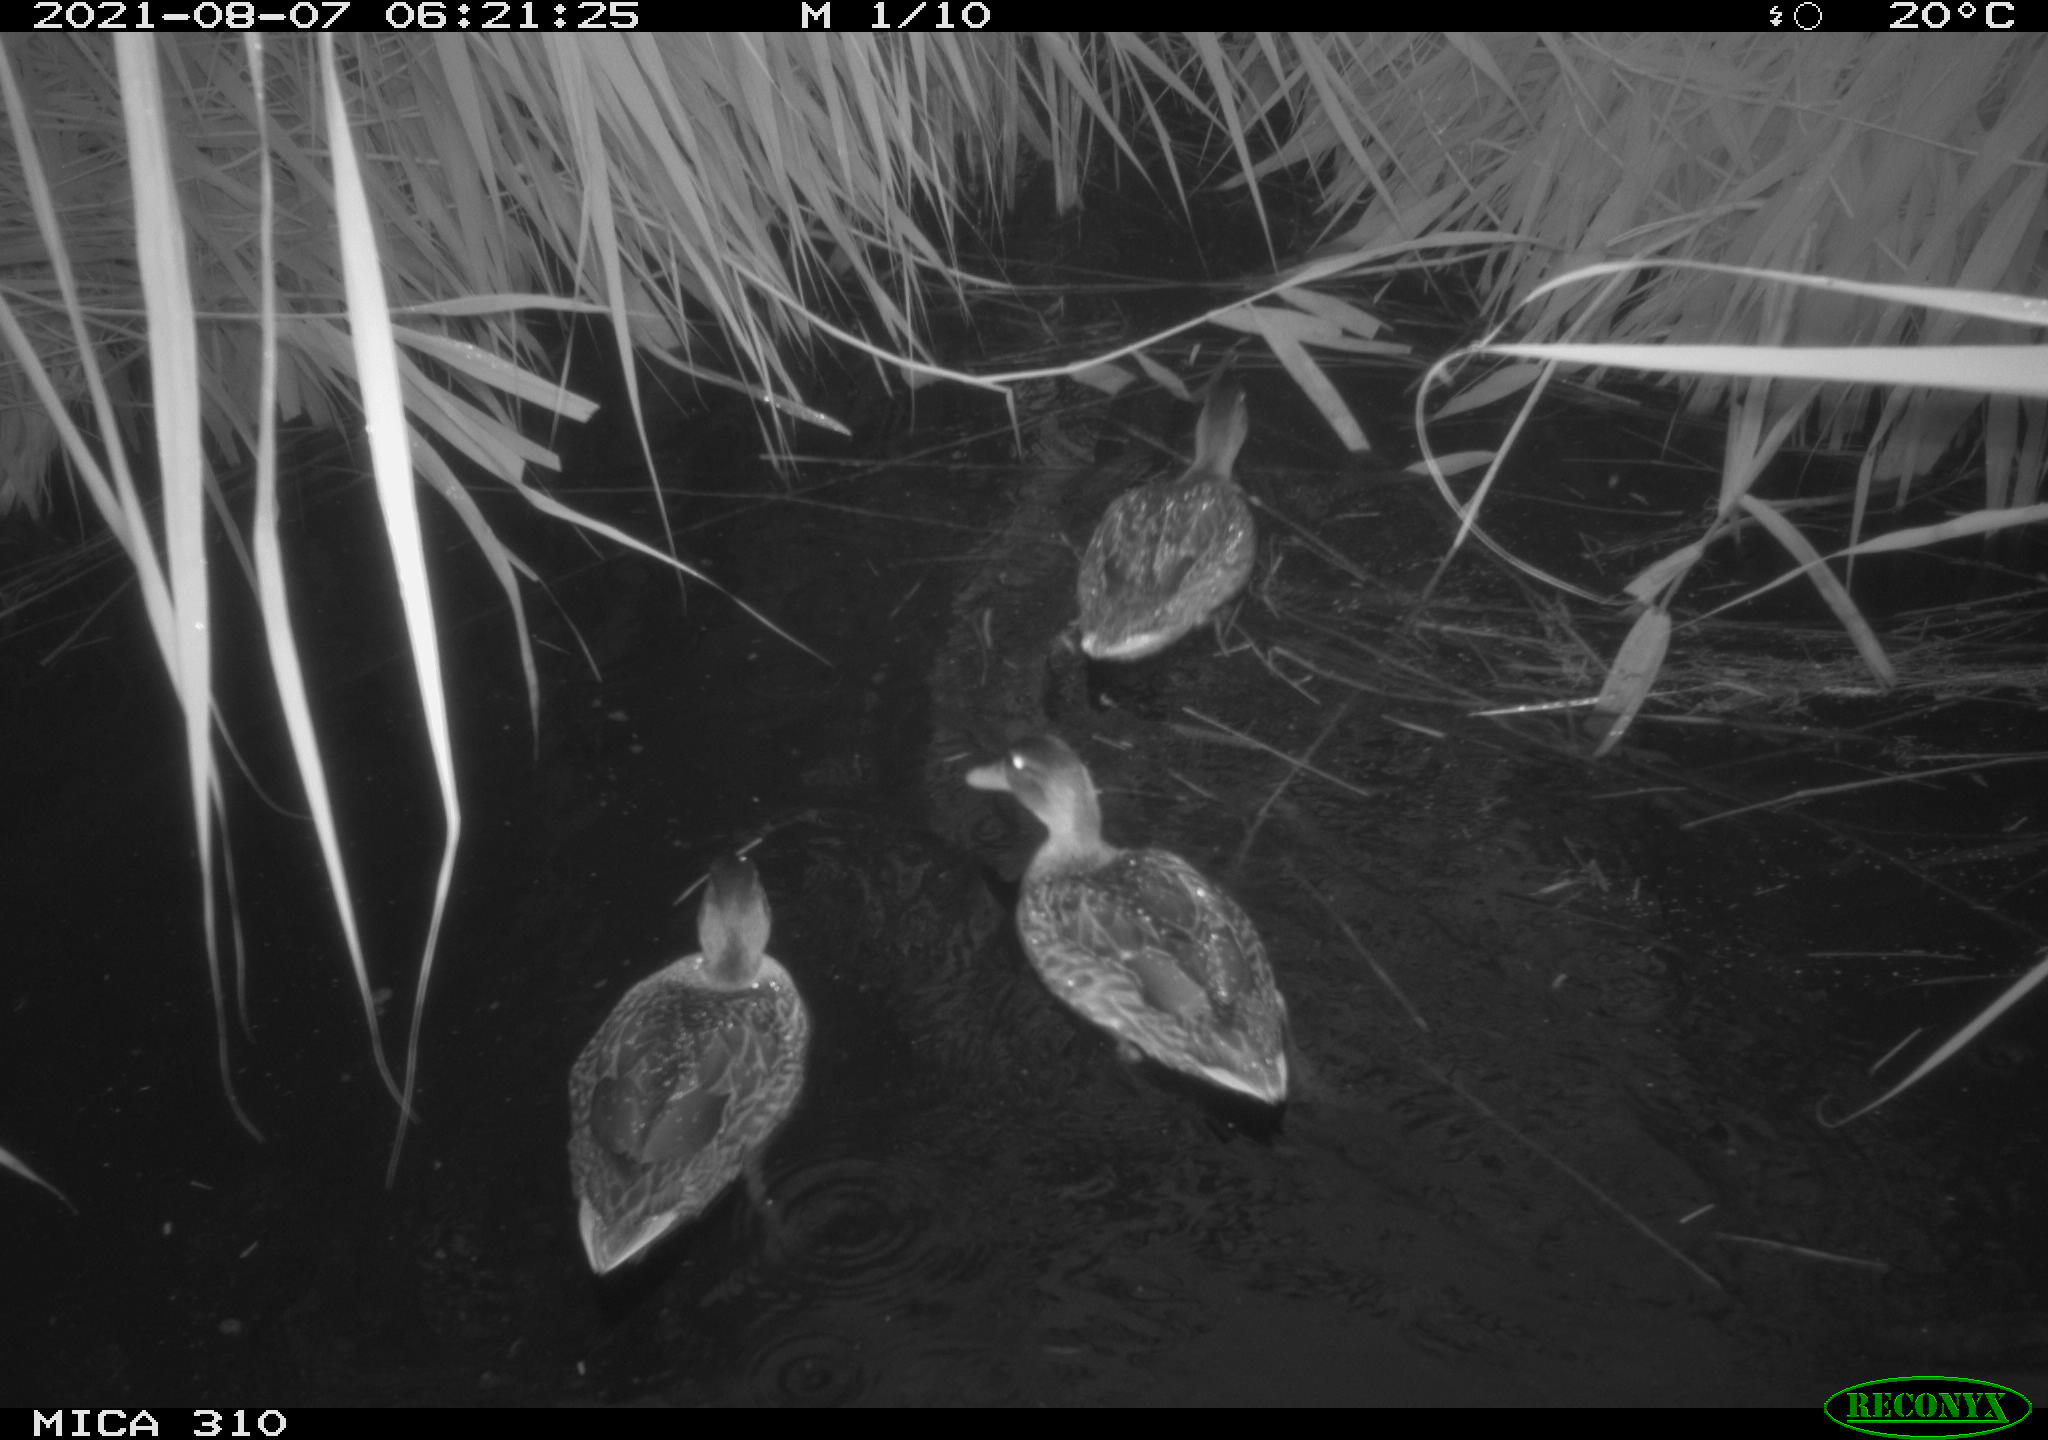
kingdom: Animalia
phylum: Chordata
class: Aves
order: Anseriformes
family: Anatidae
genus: Anas
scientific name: Anas platyrhynchos
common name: Mallard
